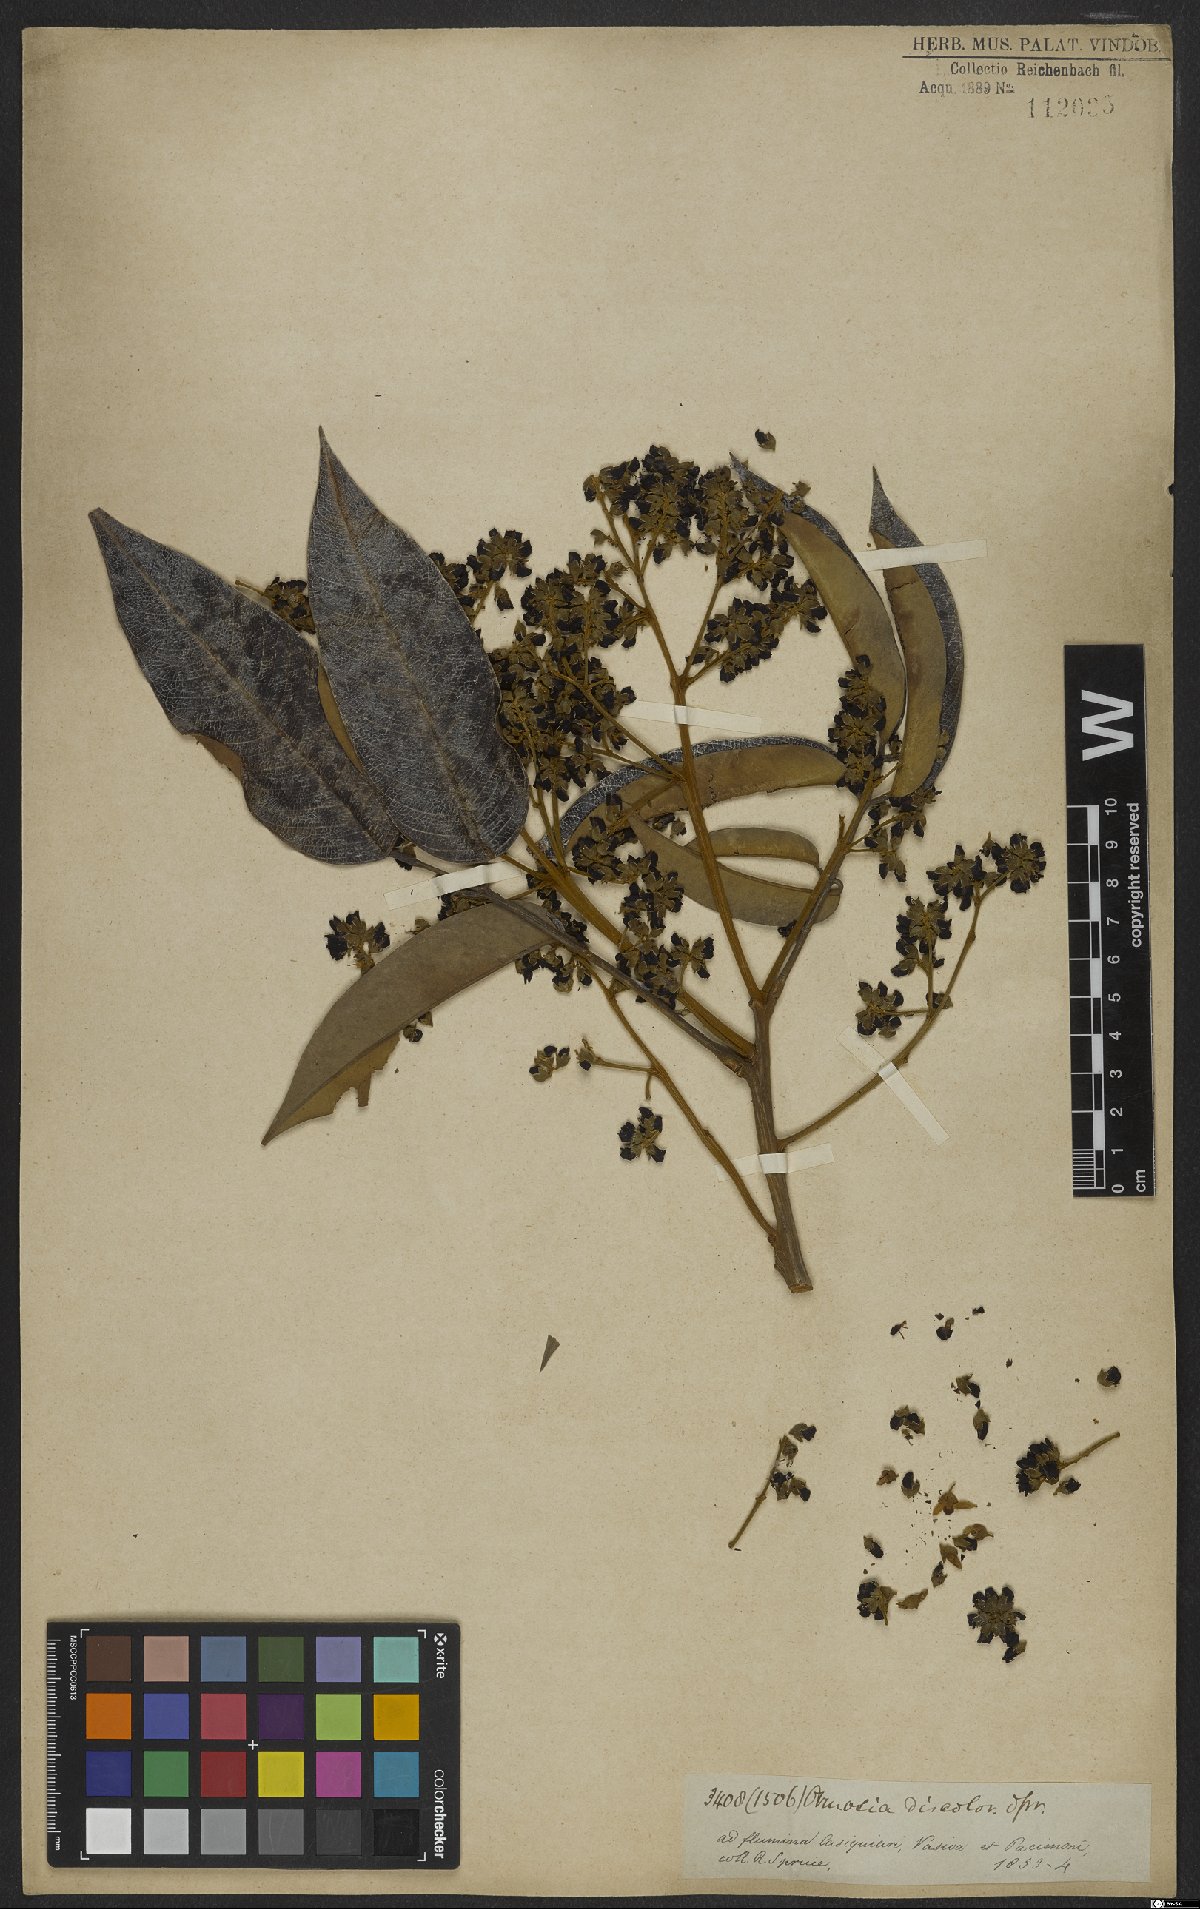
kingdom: Plantae
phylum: Tracheophyta
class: Magnoliopsida
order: Fabales
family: Fabaceae
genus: Ormosia
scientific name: Ormosia discolor
